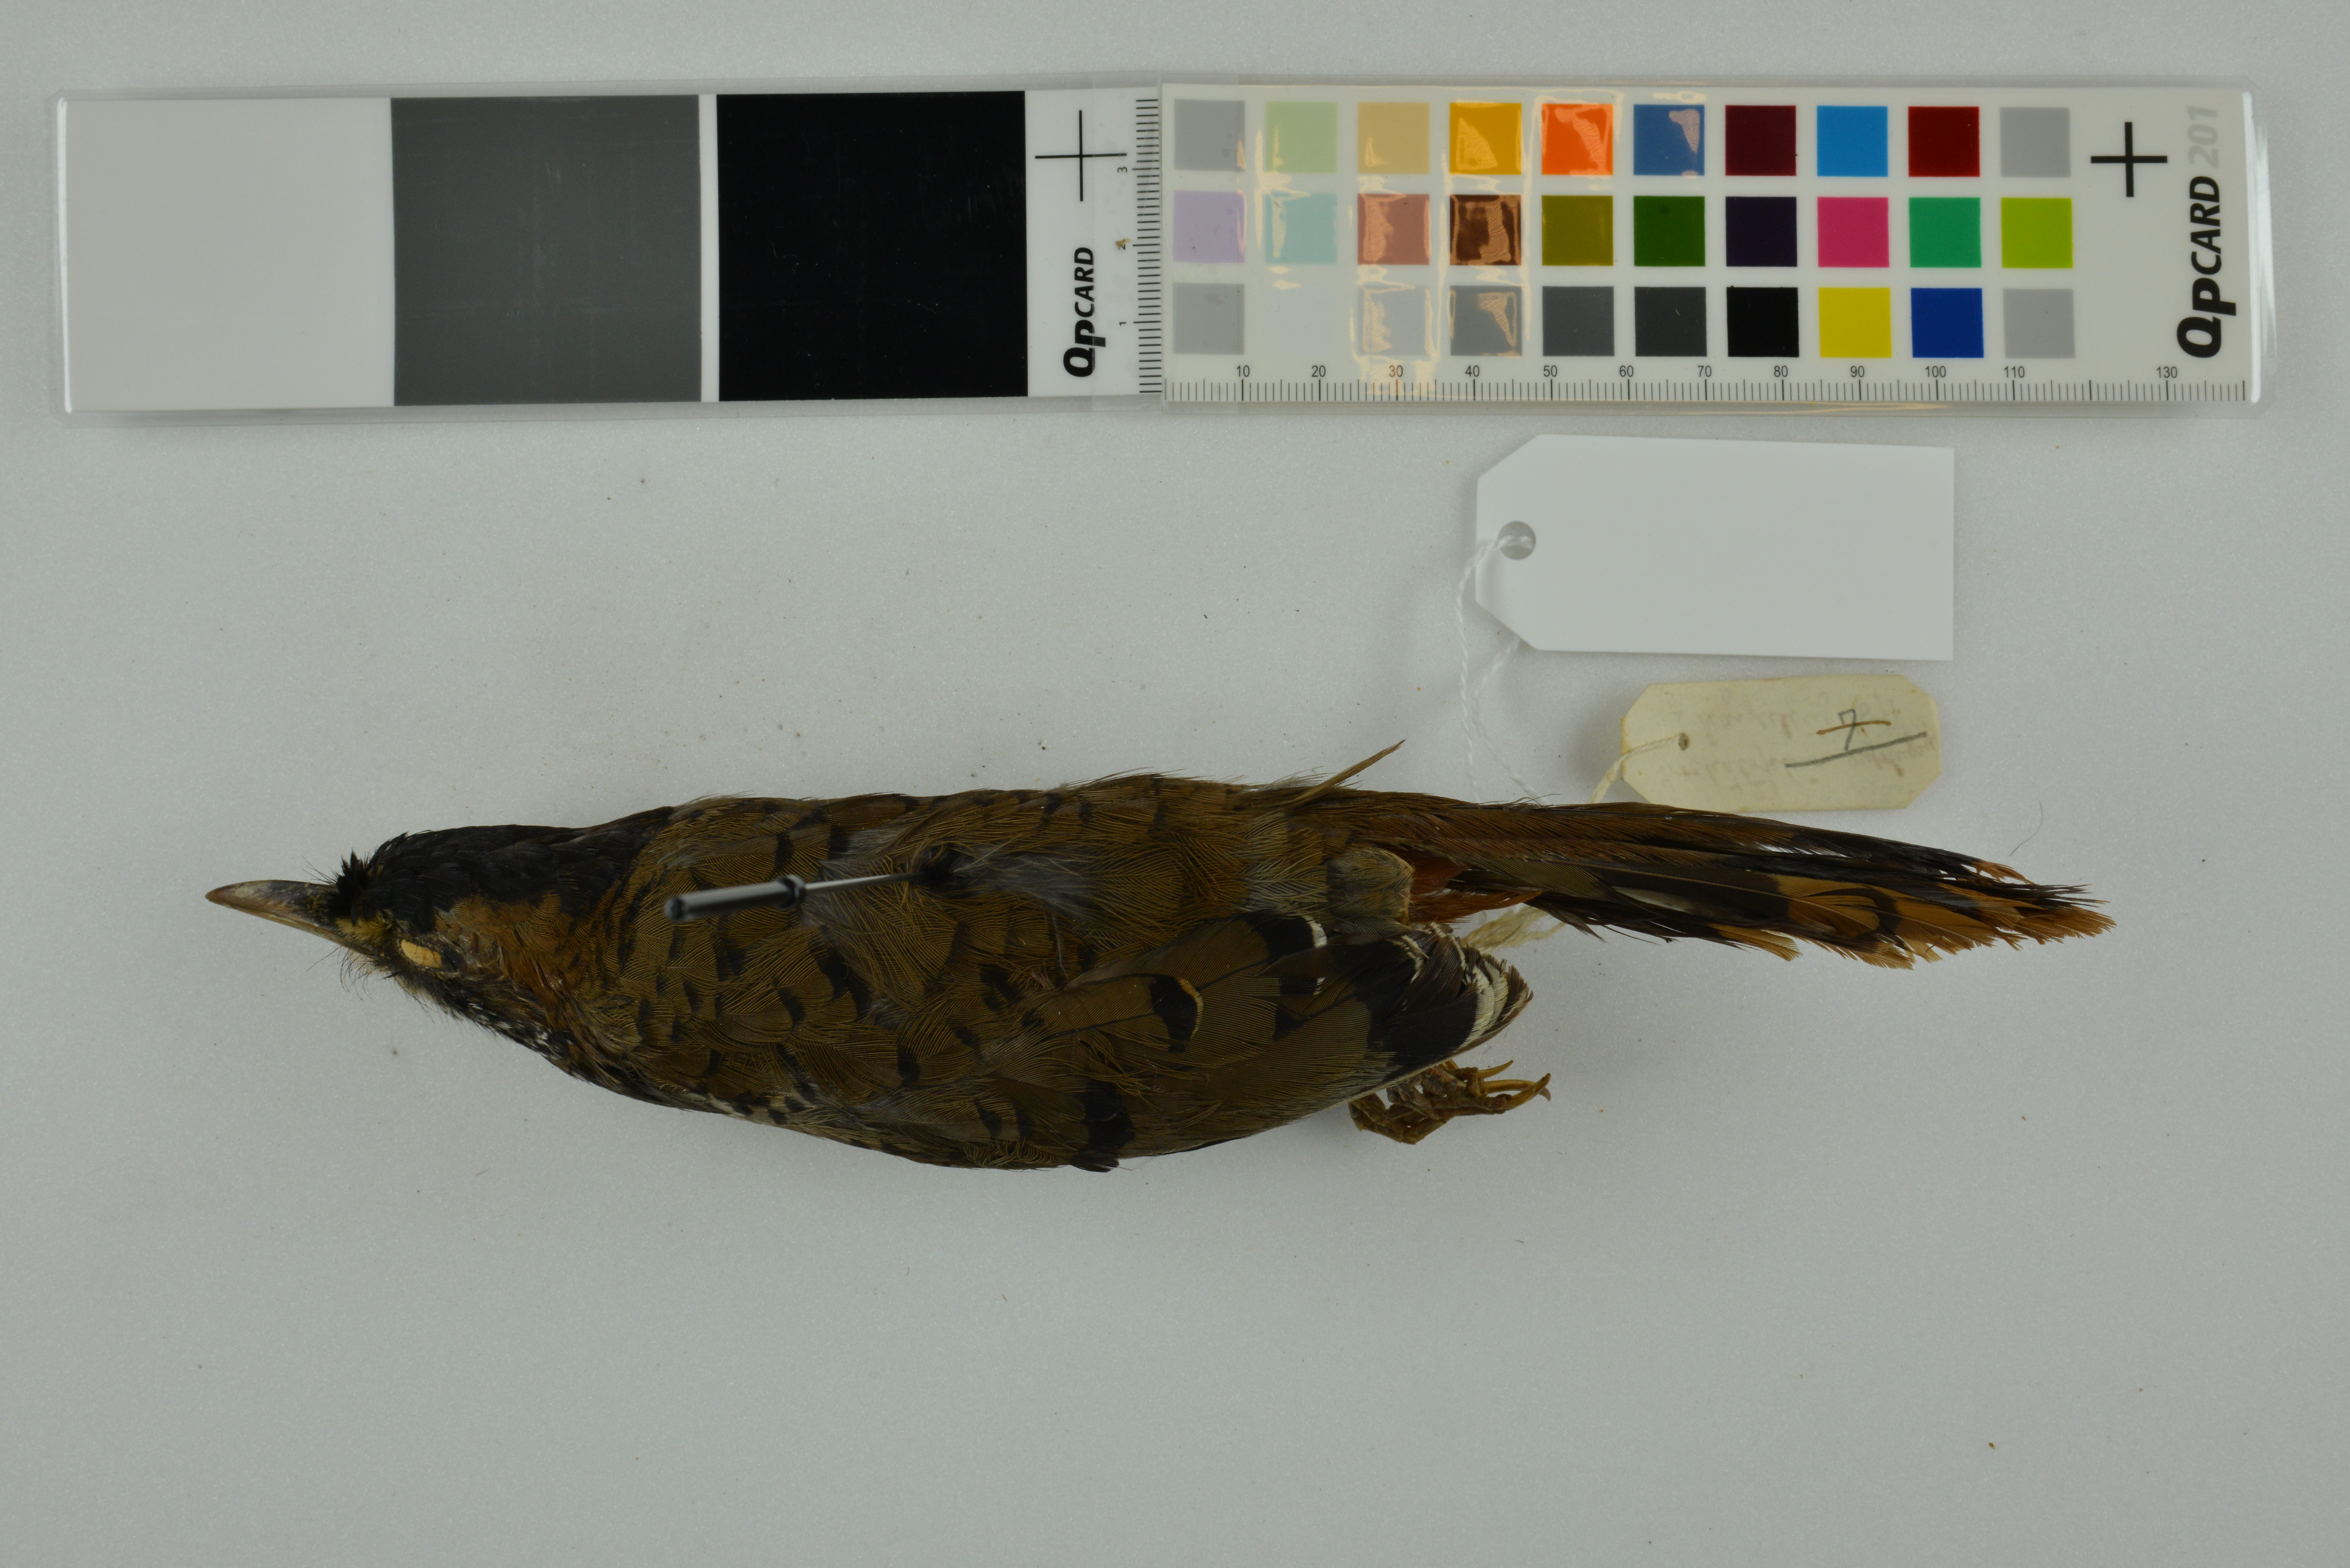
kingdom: Animalia
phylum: Chordata
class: Aves
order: Passeriformes
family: Leiothrichidae
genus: Garrulax
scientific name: Garrulax rufogularis
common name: Rufous-chinned laughingthrush
